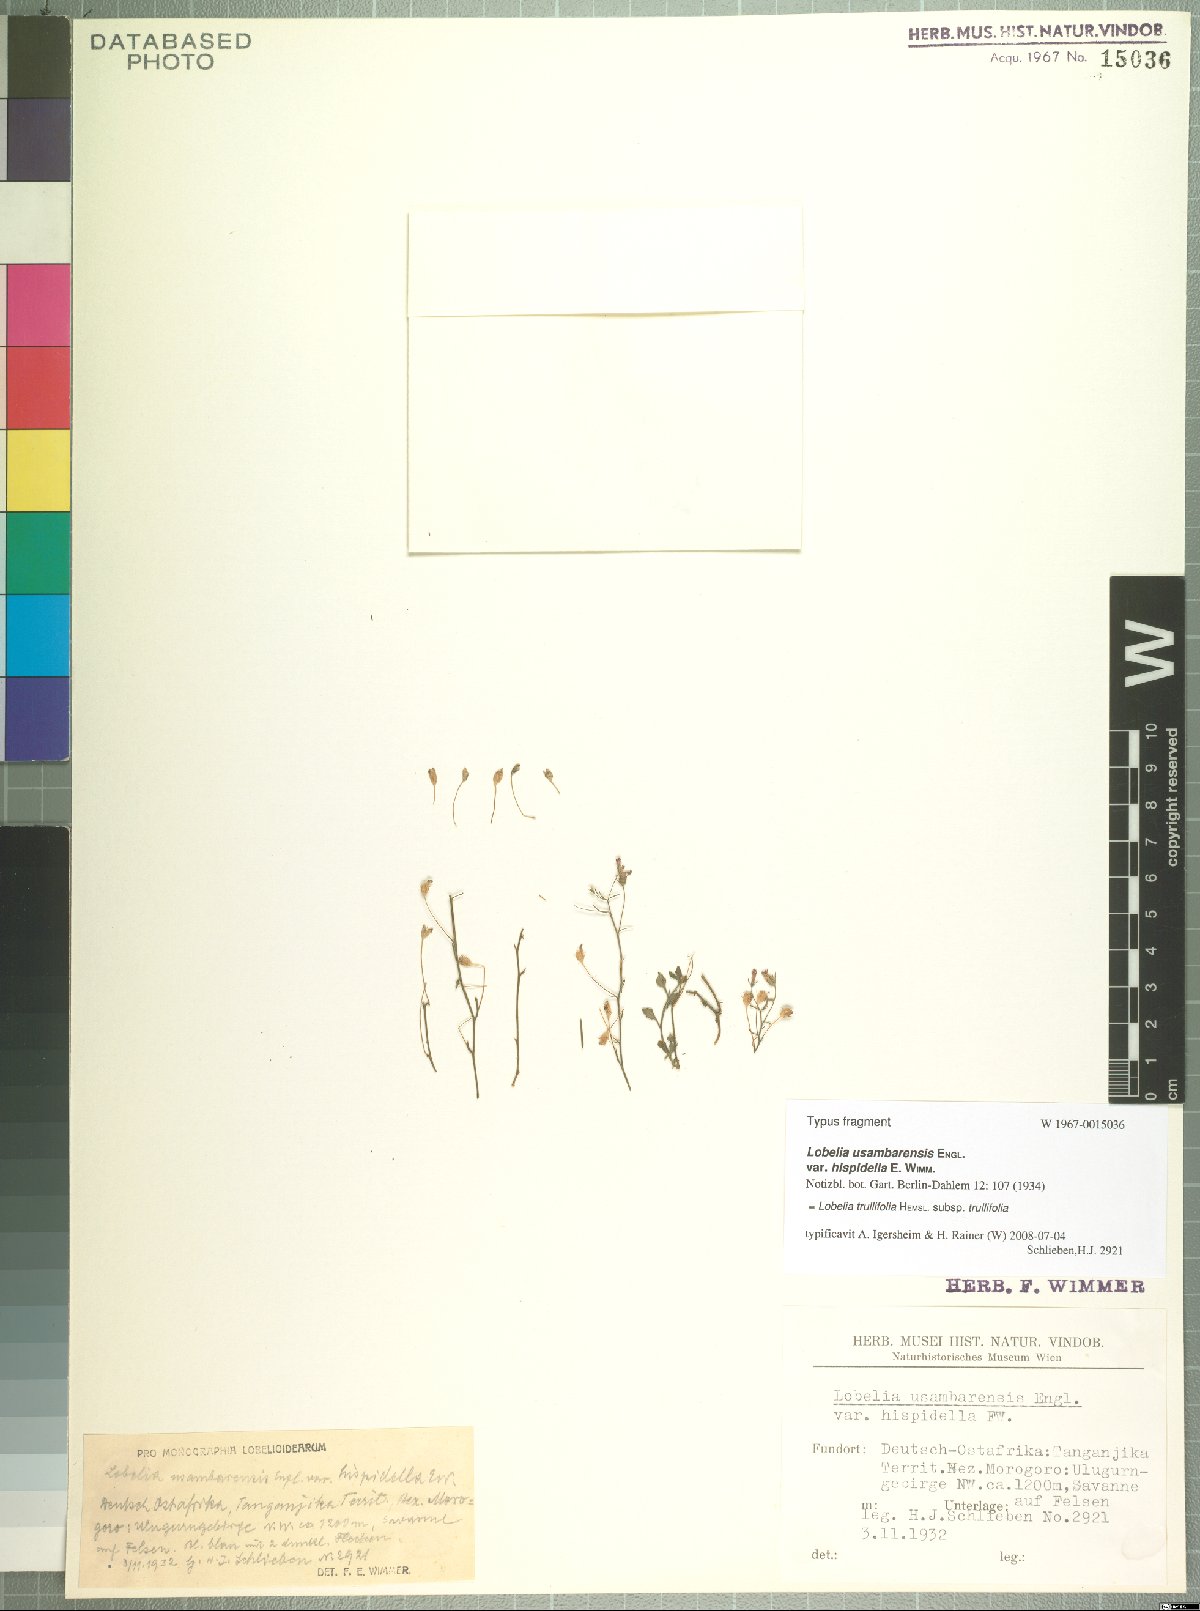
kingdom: Plantae
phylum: Tracheophyta
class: Magnoliopsida
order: Asterales
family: Campanulaceae
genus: Lobelia
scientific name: Lobelia trullifolia
